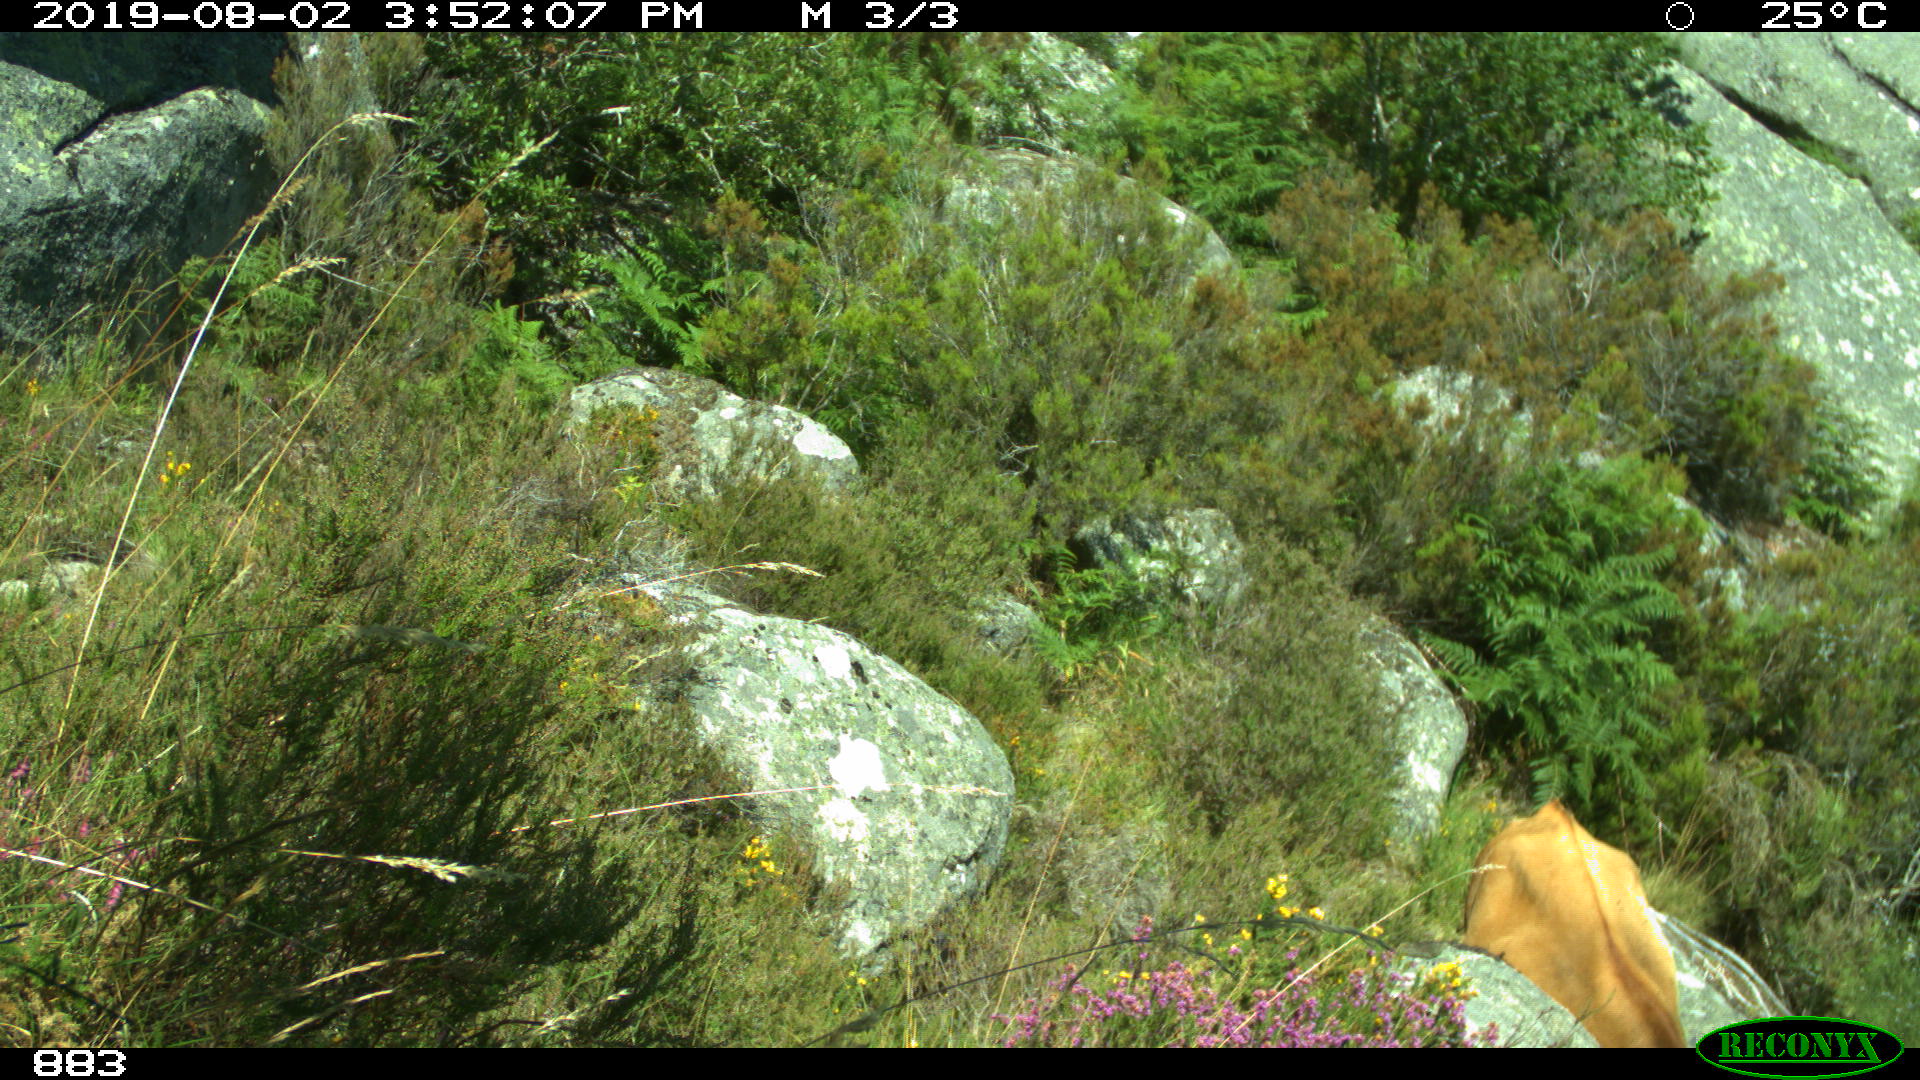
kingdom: Animalia
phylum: Chordata
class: Mammalia
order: Artiodactyla
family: Bovidae
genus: Bos
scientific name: Bos taurus
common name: Domesticated cattle
